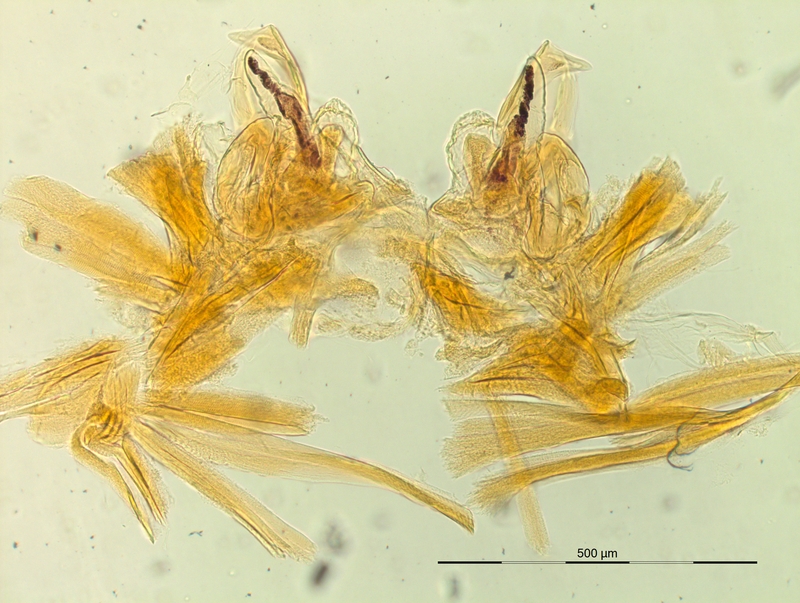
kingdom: Animalia
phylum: Arthropoda
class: Diplopoda
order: Chordeumatida
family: Craspedosomatidae
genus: Oxydactylon
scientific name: Oxydactylon apenninorum
